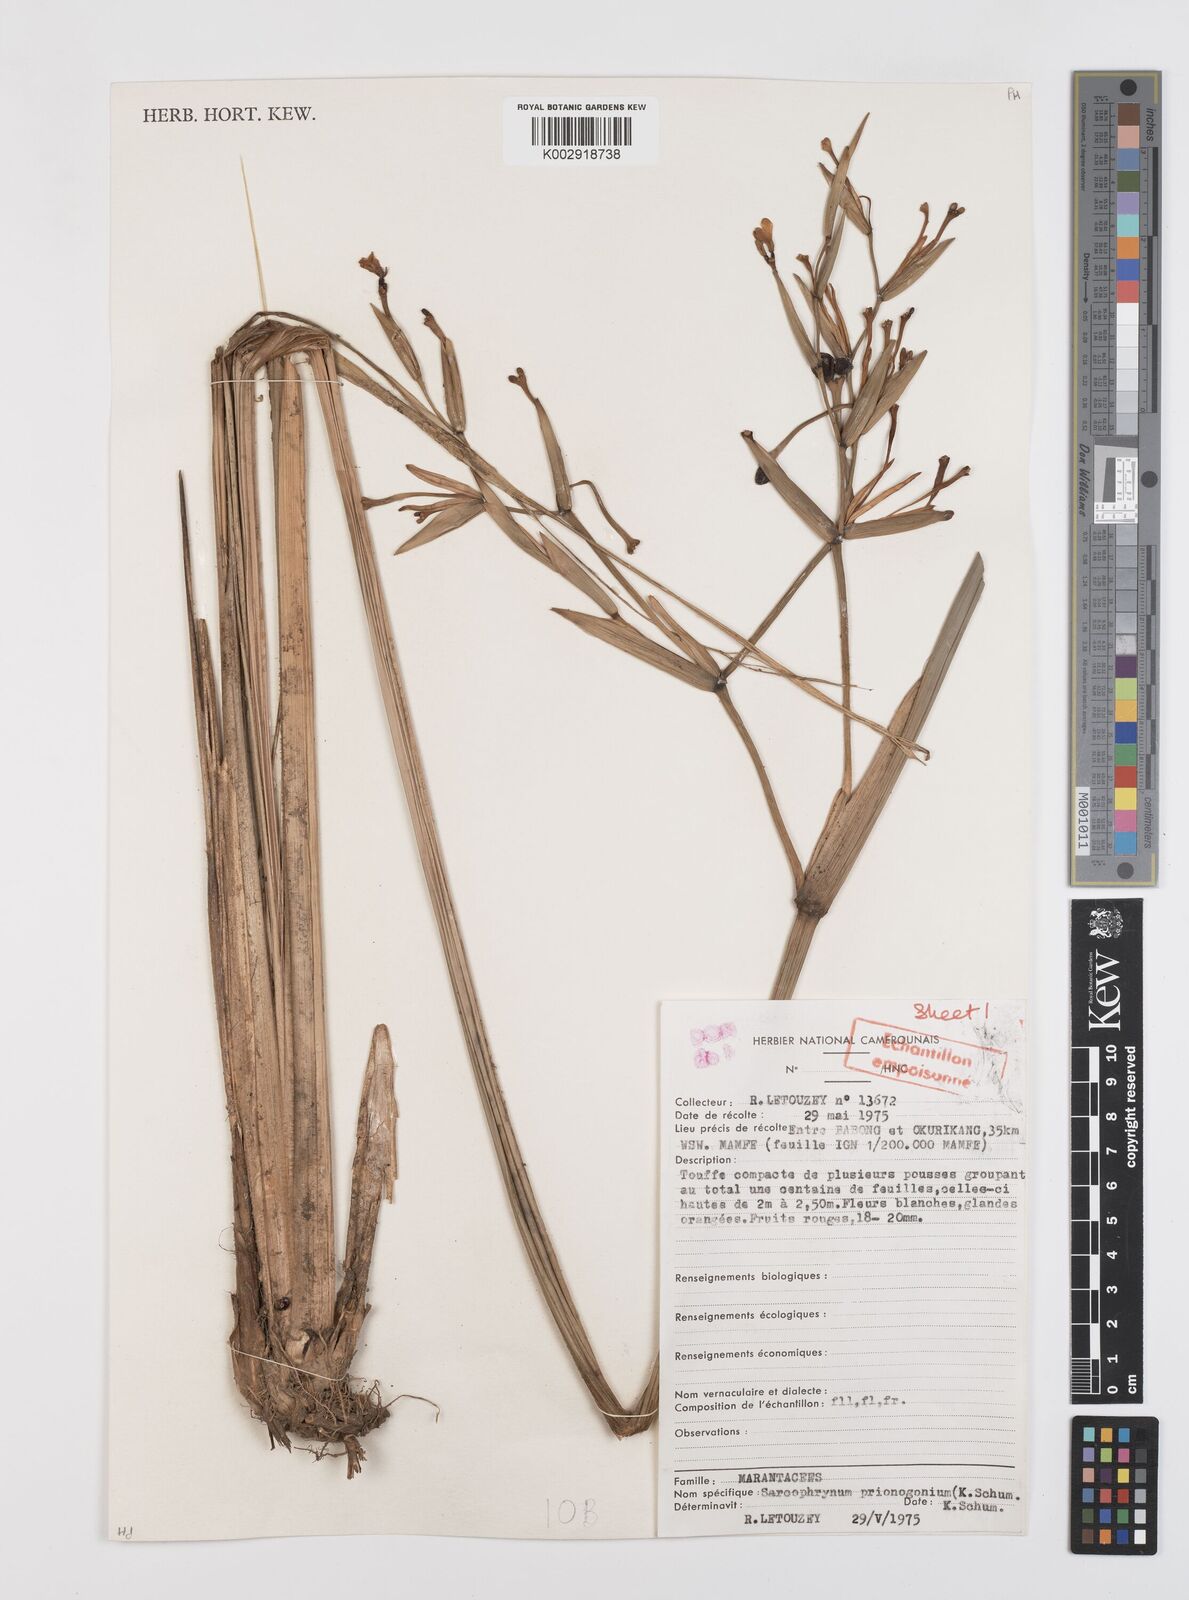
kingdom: Plantae
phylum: Tracheophyta
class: Liliopsida
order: Zingiberales
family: Marantaceae
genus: Sarcophrynium
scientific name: Sarcophrynium prionogonium
